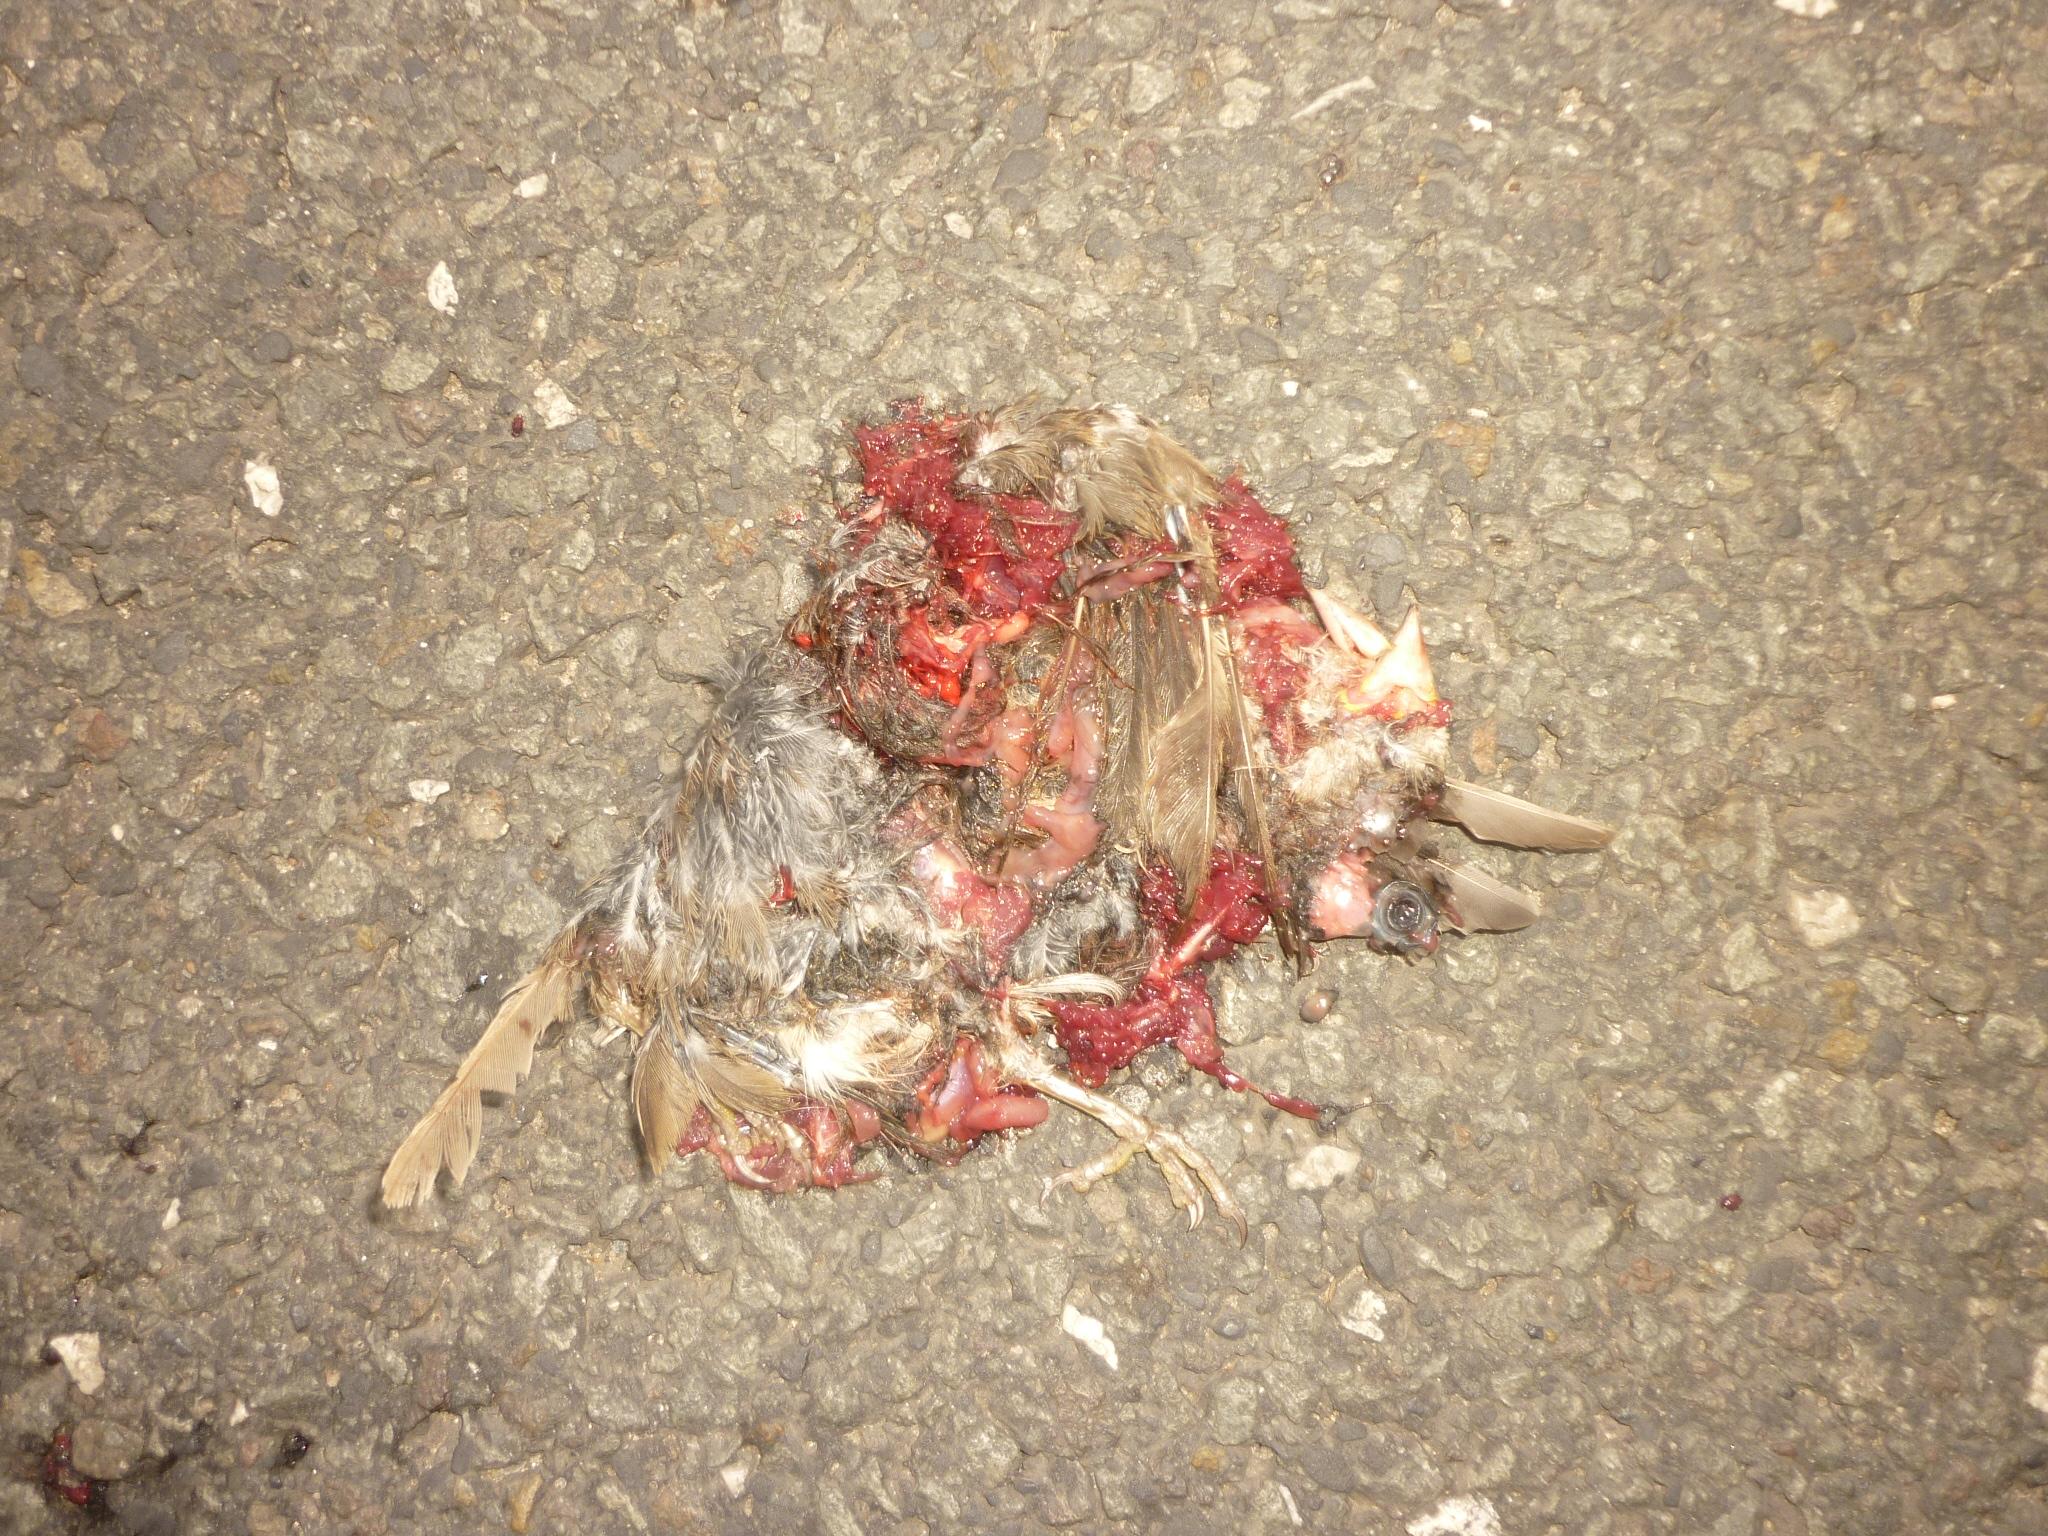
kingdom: Animalia
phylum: Chordata
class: Aves
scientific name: Aves
